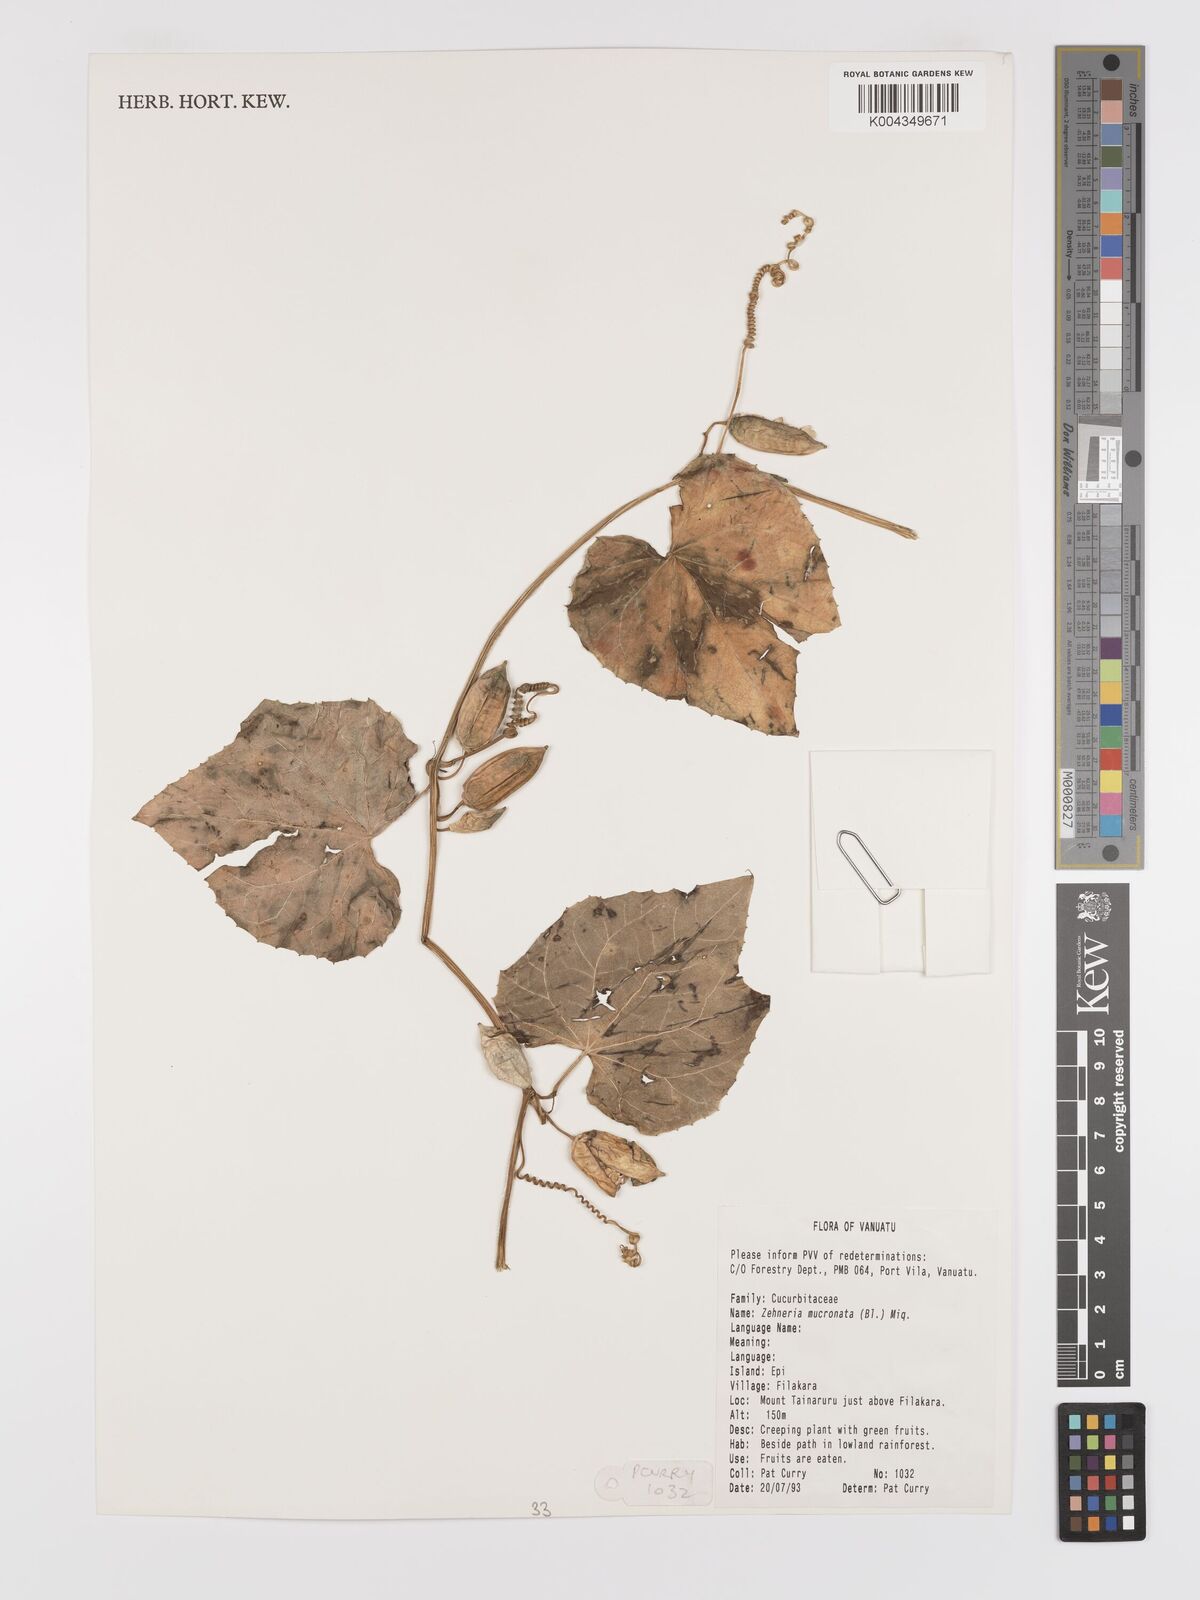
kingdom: Plantae
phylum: Tracheophyta
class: Magnoliopsida
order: Cucurbitales
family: Cucurbitaceae
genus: Zehneria
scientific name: Zehneria mucronata
